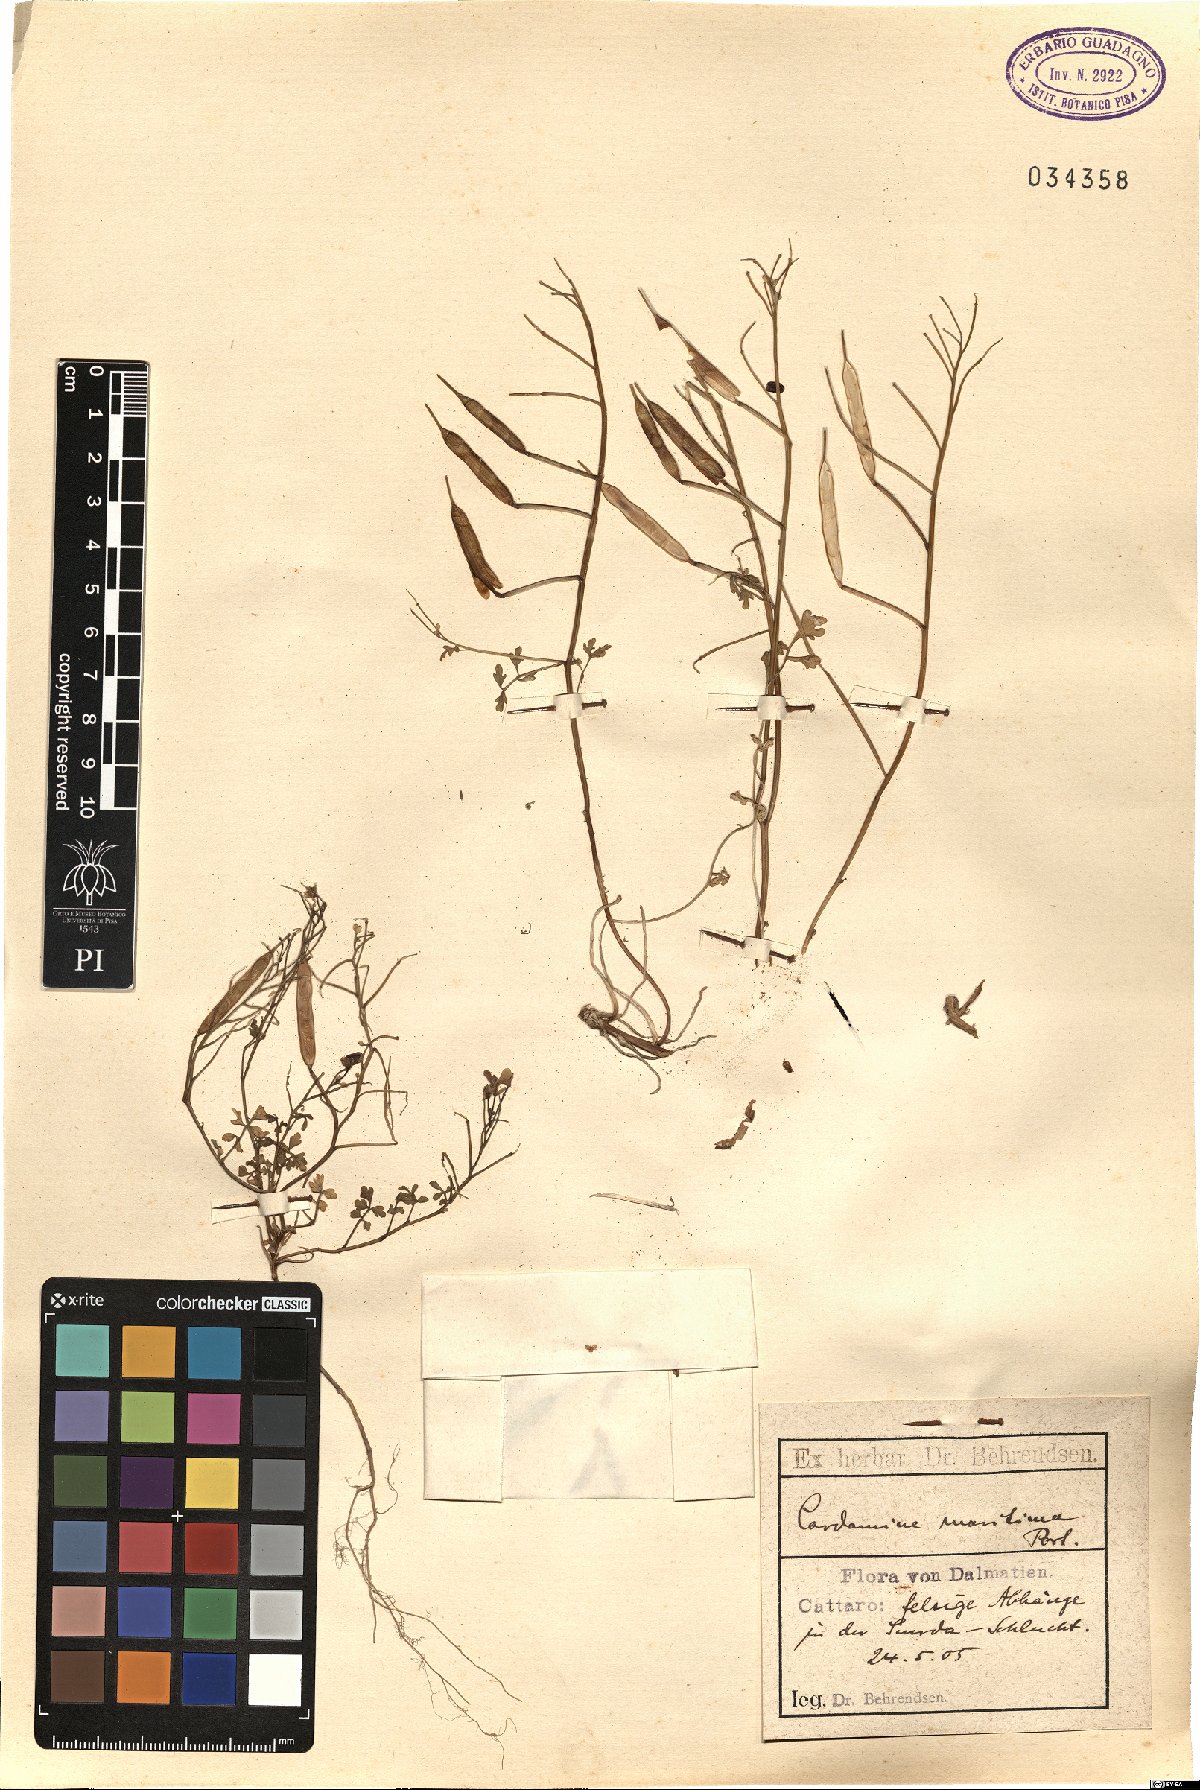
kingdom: Plantae
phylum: Tracheophyta
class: Magnoliopsida
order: Brassicales
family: Brassicaceae
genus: Cardamine
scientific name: Cardamine maritima
